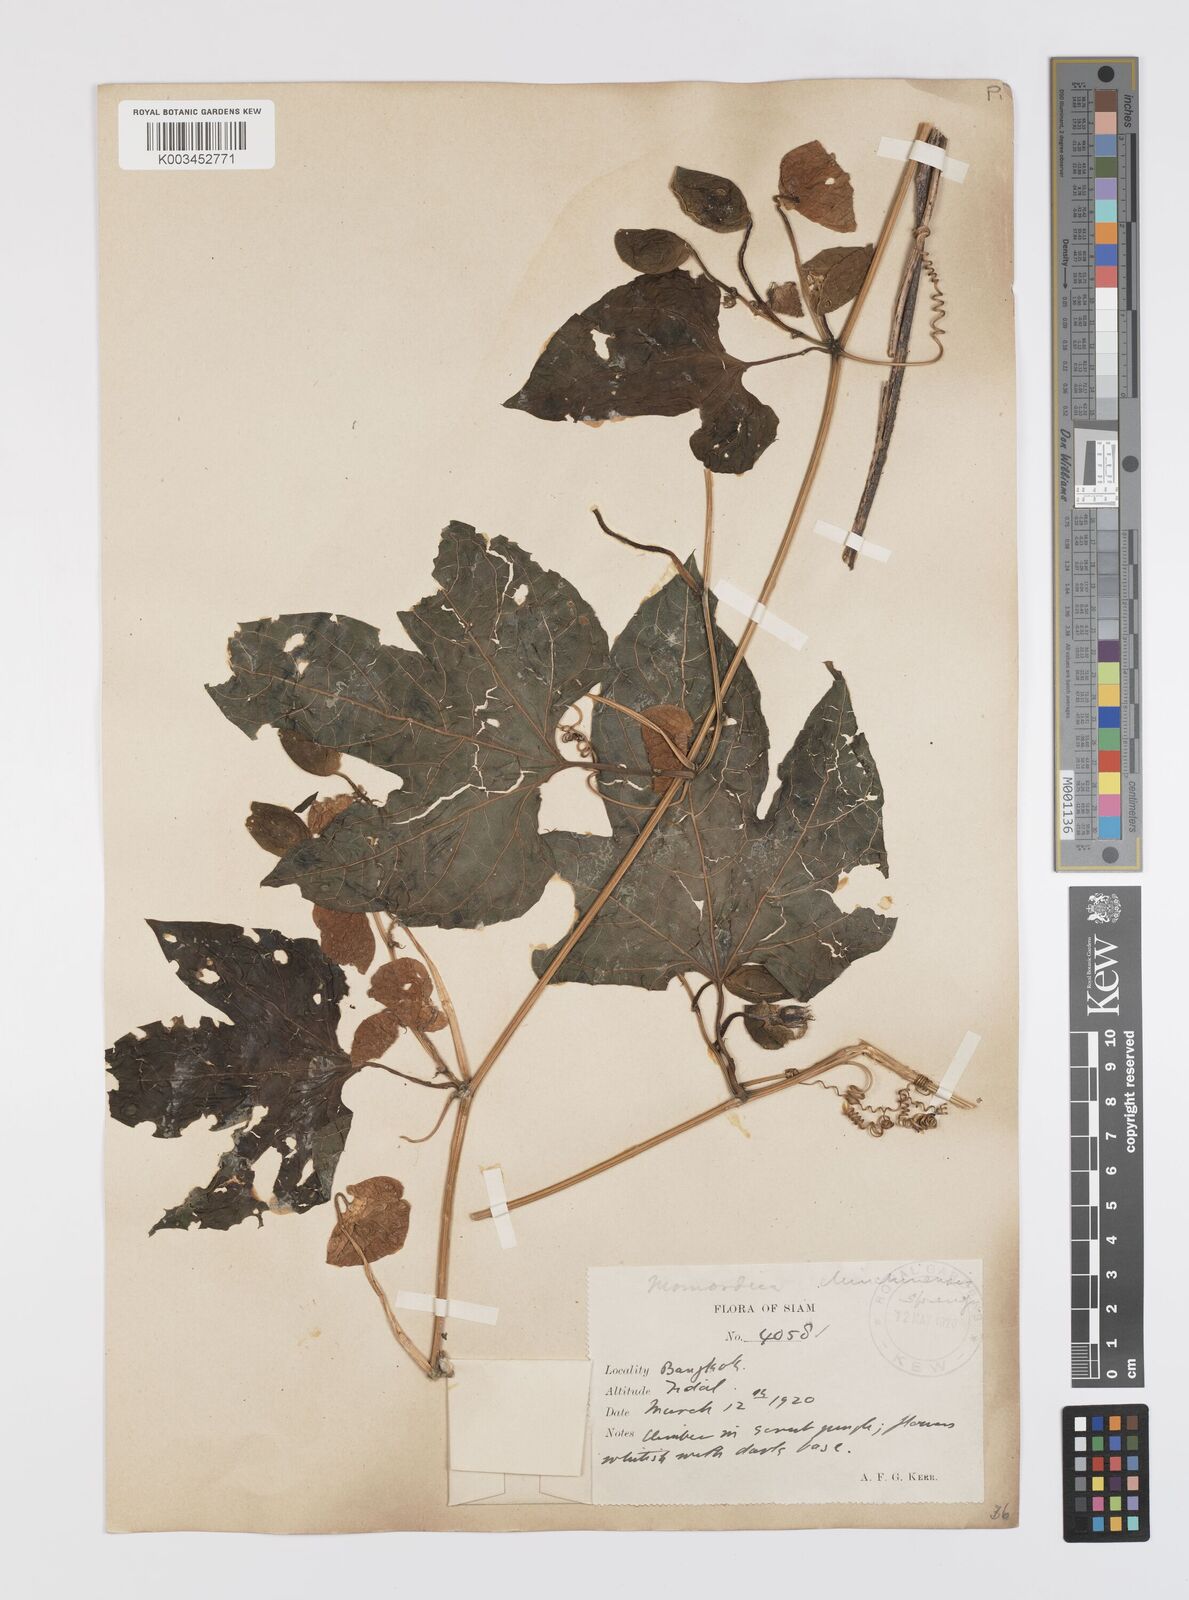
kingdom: Plantae
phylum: Tracheophyta
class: Magnoliopsida
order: Cucurbitales
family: Cucurbitaceae
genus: Momordica
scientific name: Momordica cochinchinensis
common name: Chinese bitter-cucumber
